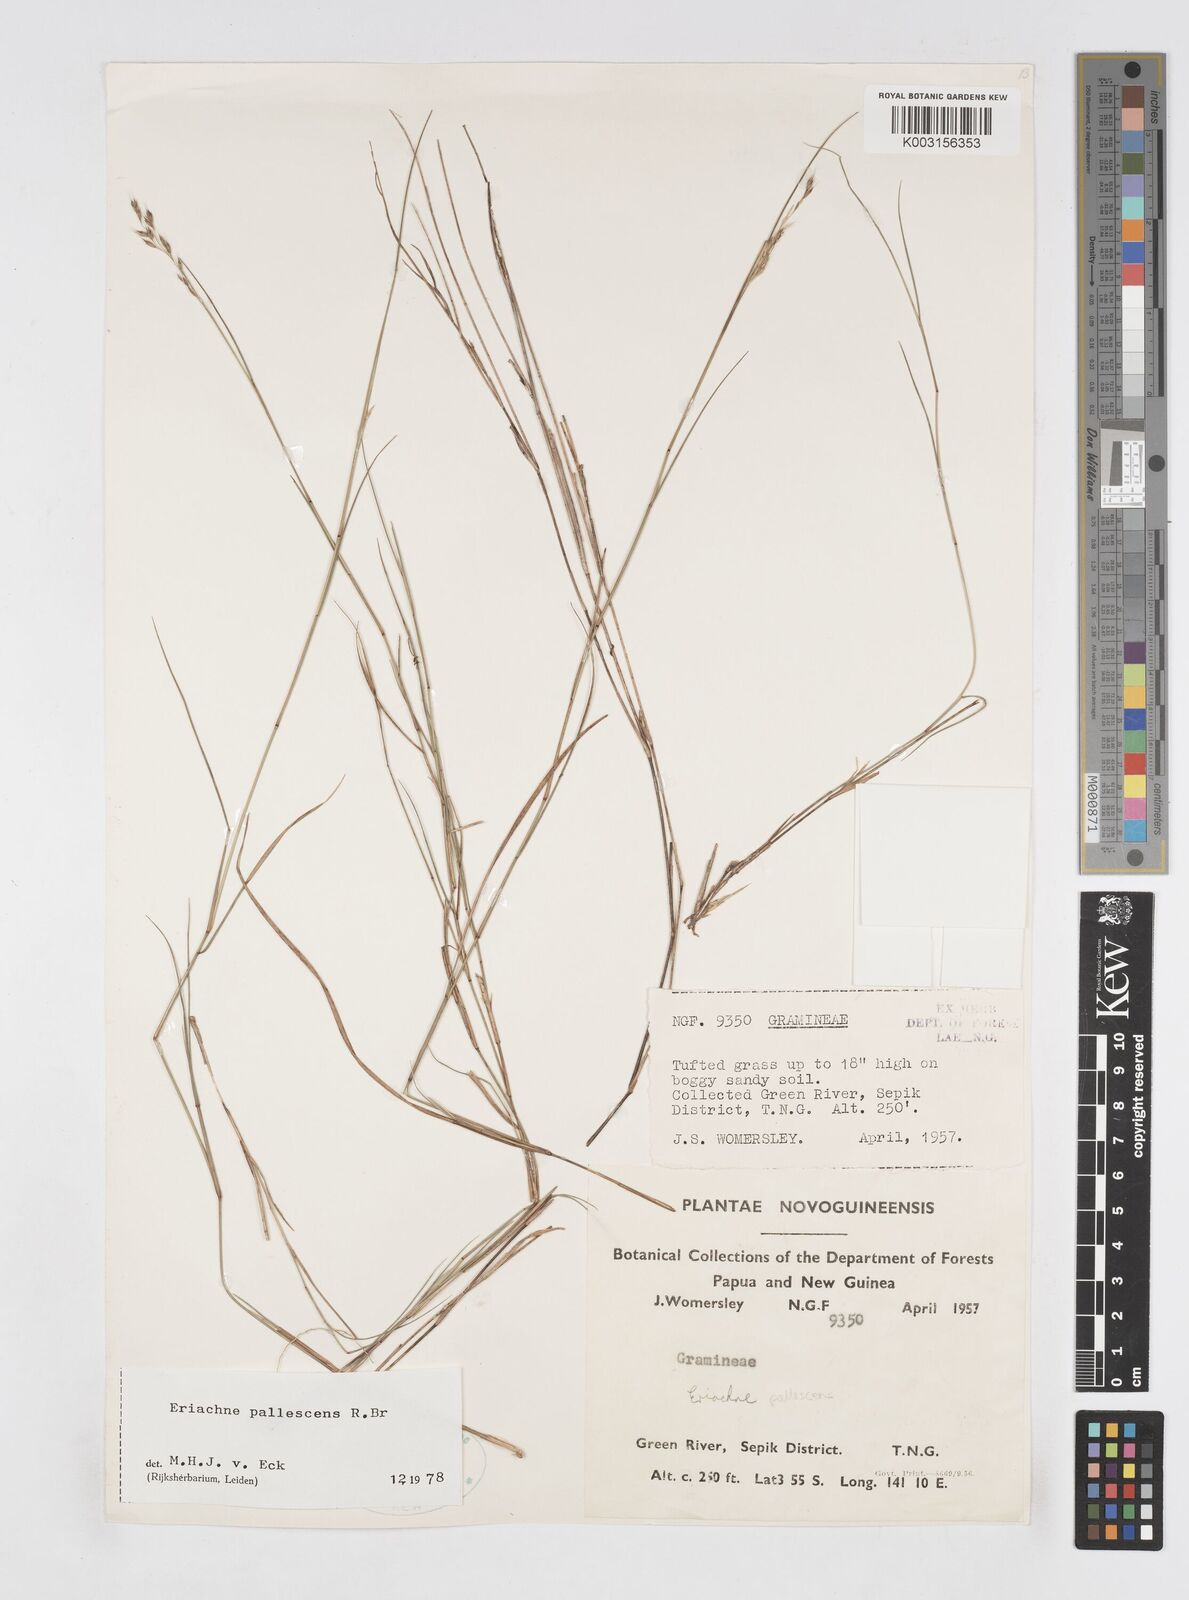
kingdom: Plantae
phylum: Tracheophyta
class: Liliopsida
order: Poales
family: Poaceae
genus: Eriachne
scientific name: Eriachne pallescens
